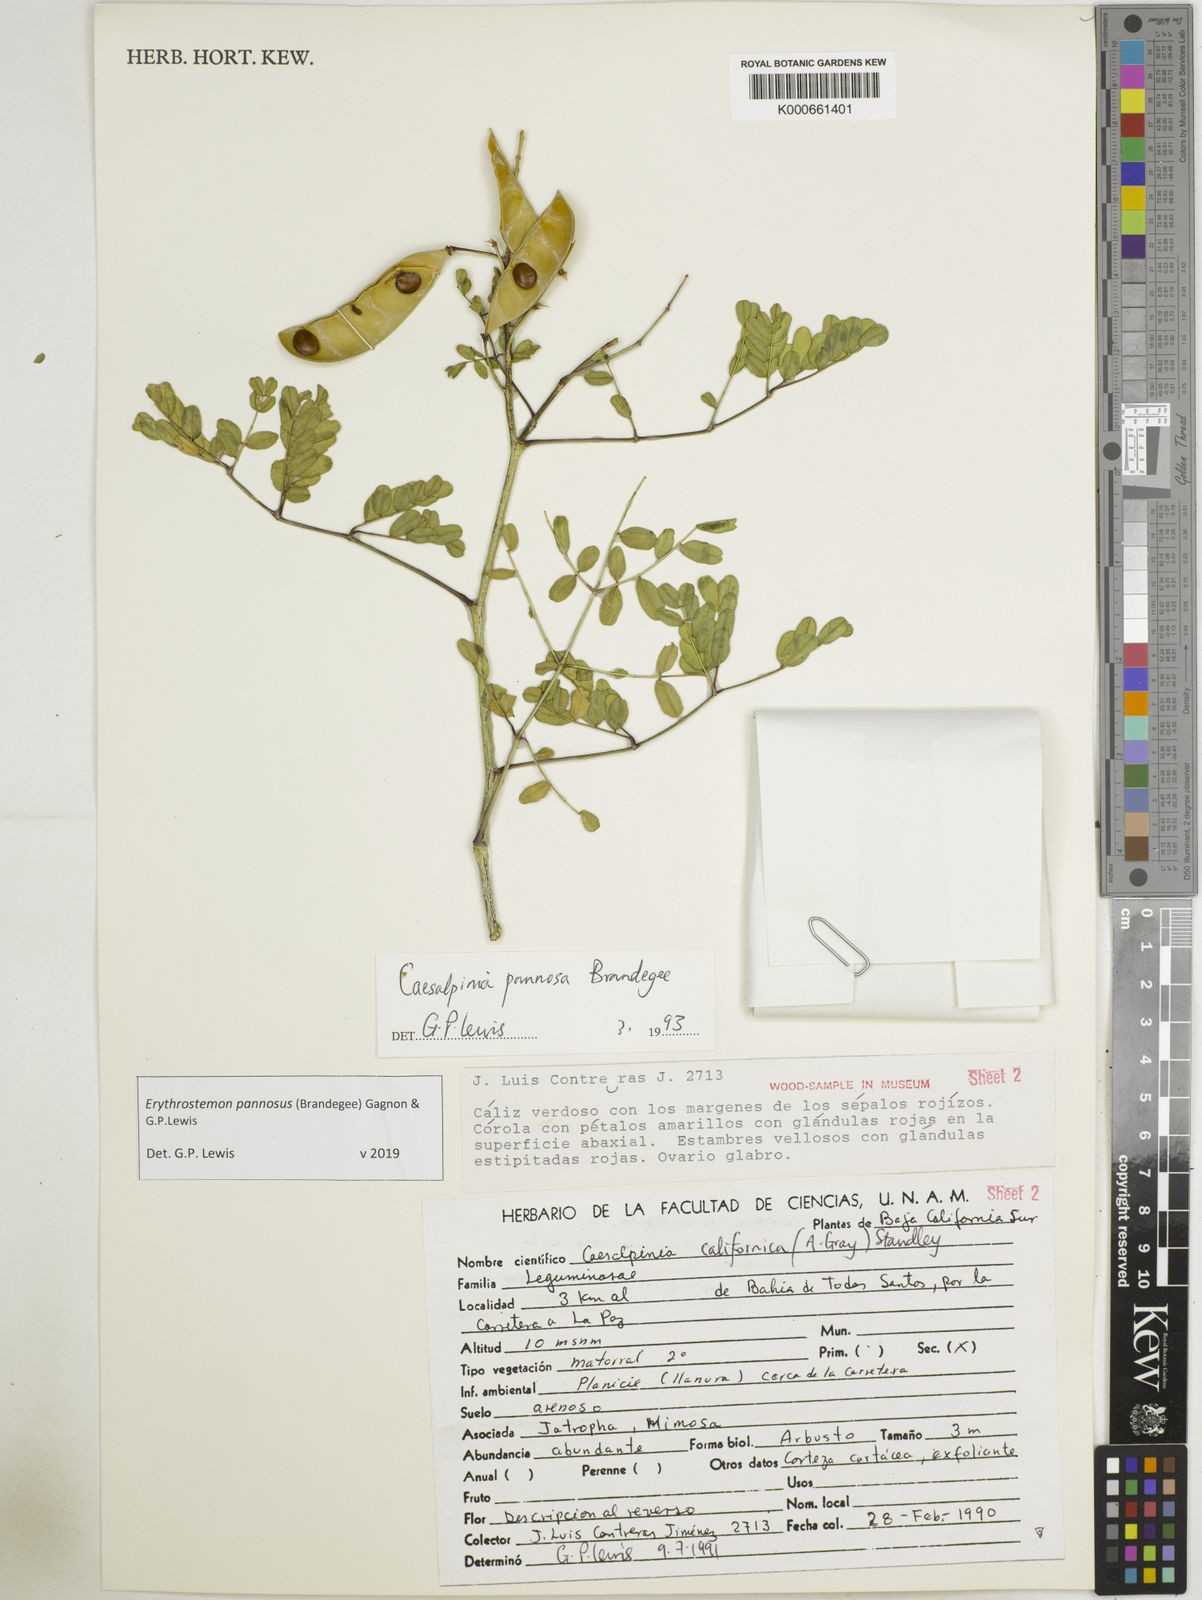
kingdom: Plantae
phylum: Tracheophyta
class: Magnoliopsida
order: Fabales
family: Fabaceae
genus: Erythrostemon
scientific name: Erythrostemon pannosus
